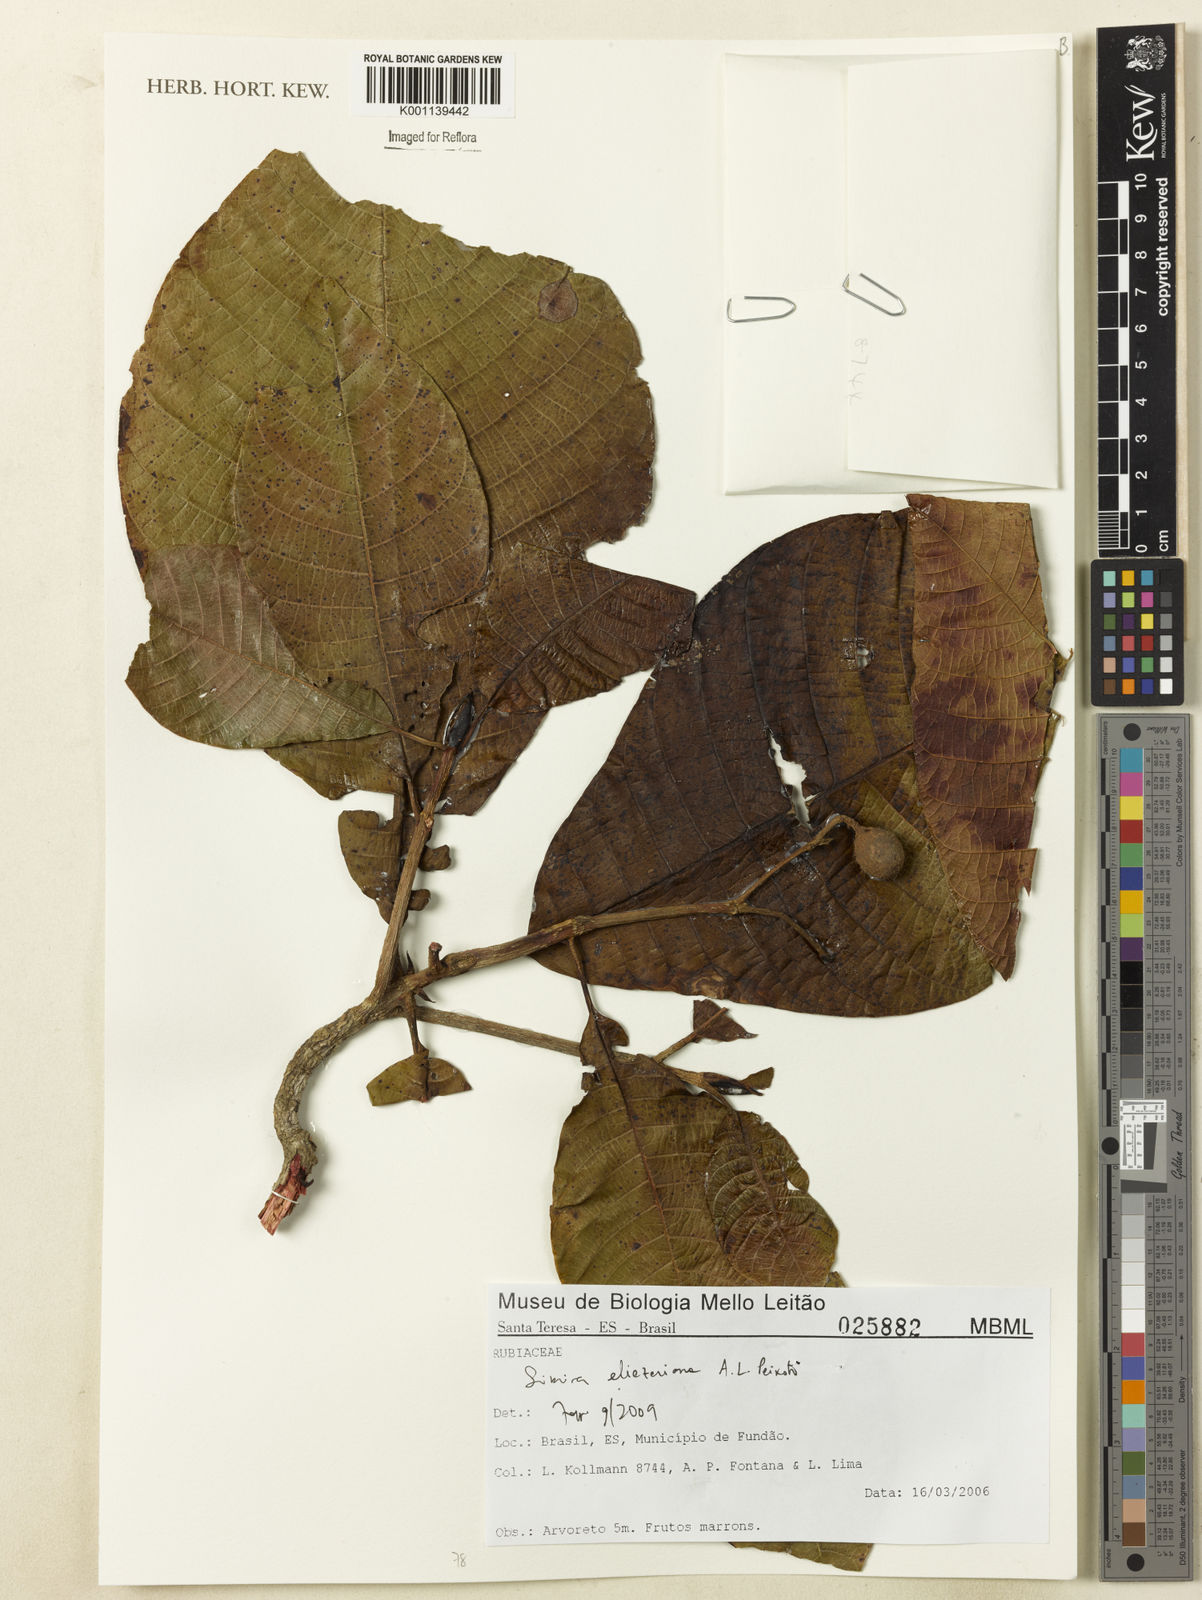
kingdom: Plantae
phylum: Tracheophyta
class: Magnoliopsida
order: Gentianales
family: Rubiaceae
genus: Simira
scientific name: Simira eliezeriana
